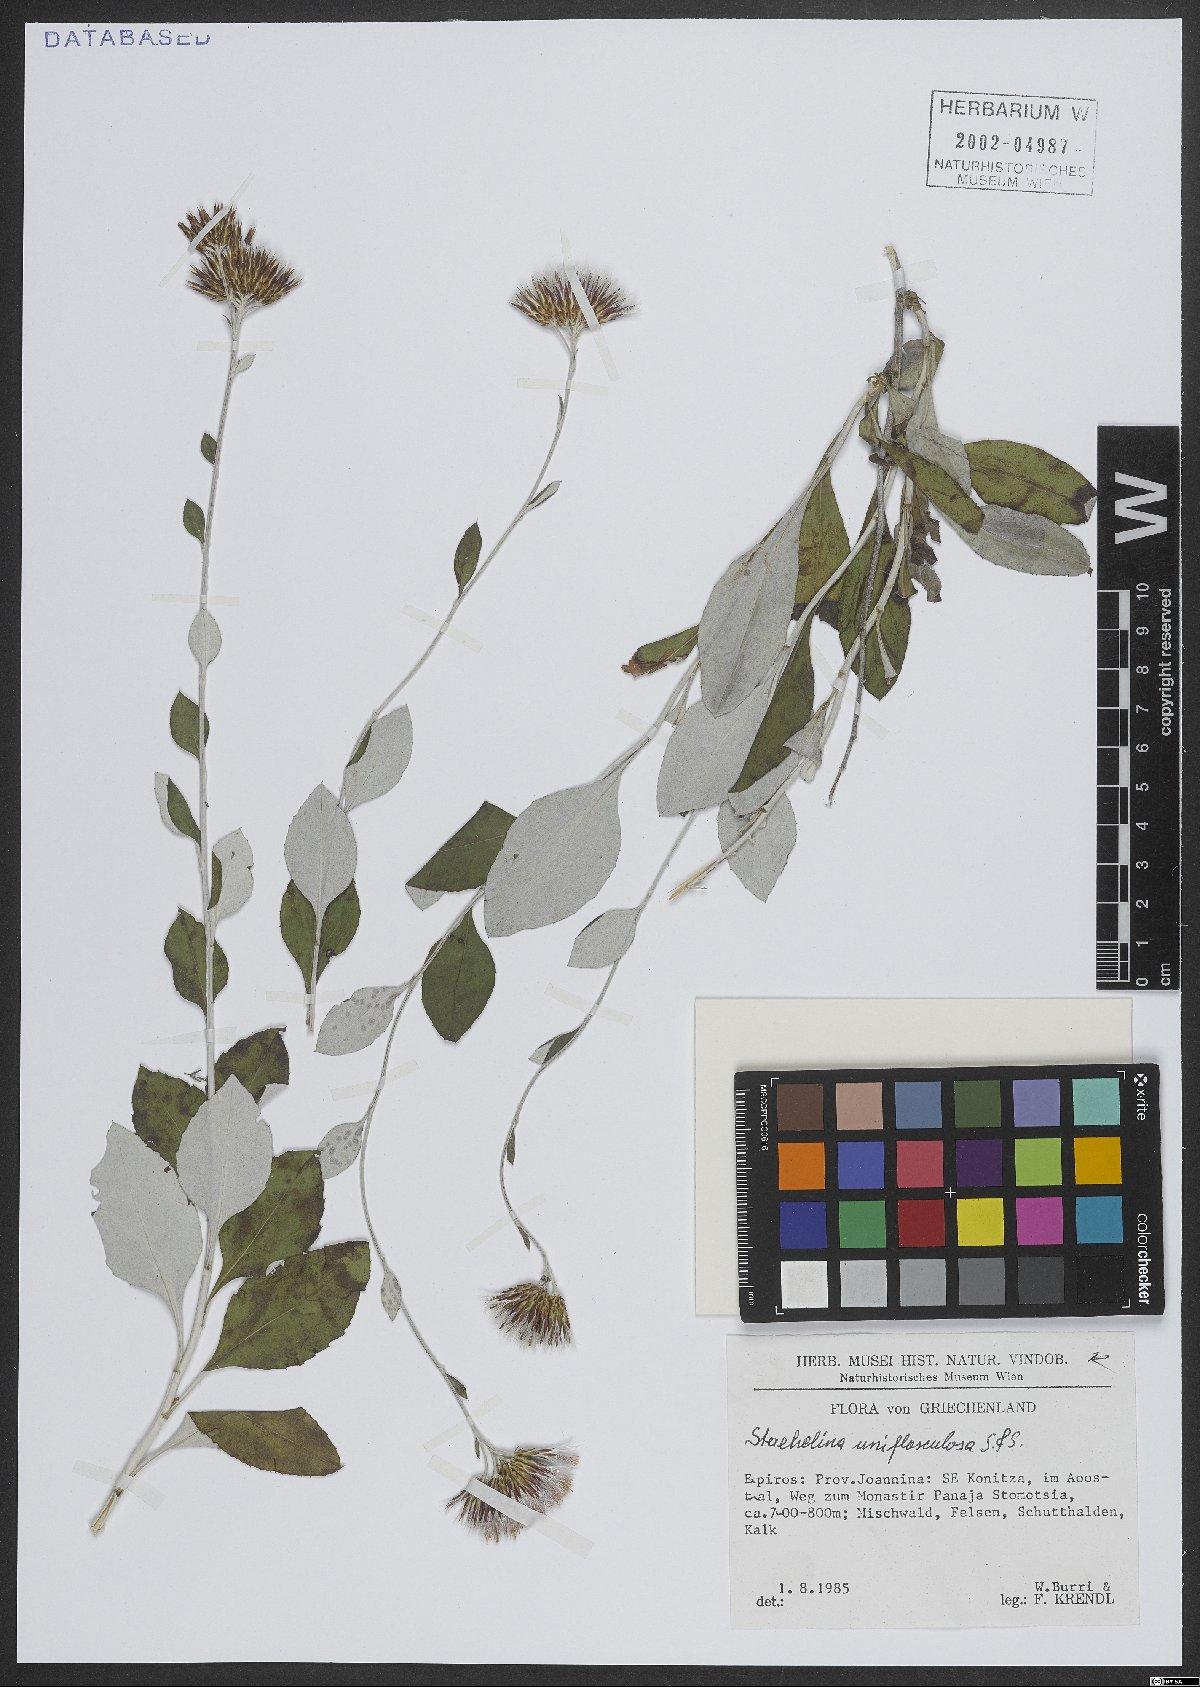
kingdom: Plantae
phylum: Tracheophyta
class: Magnoliopsida
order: Asterales
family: Asteraceae
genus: Staehelina
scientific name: Staehelina uniflosculosa
